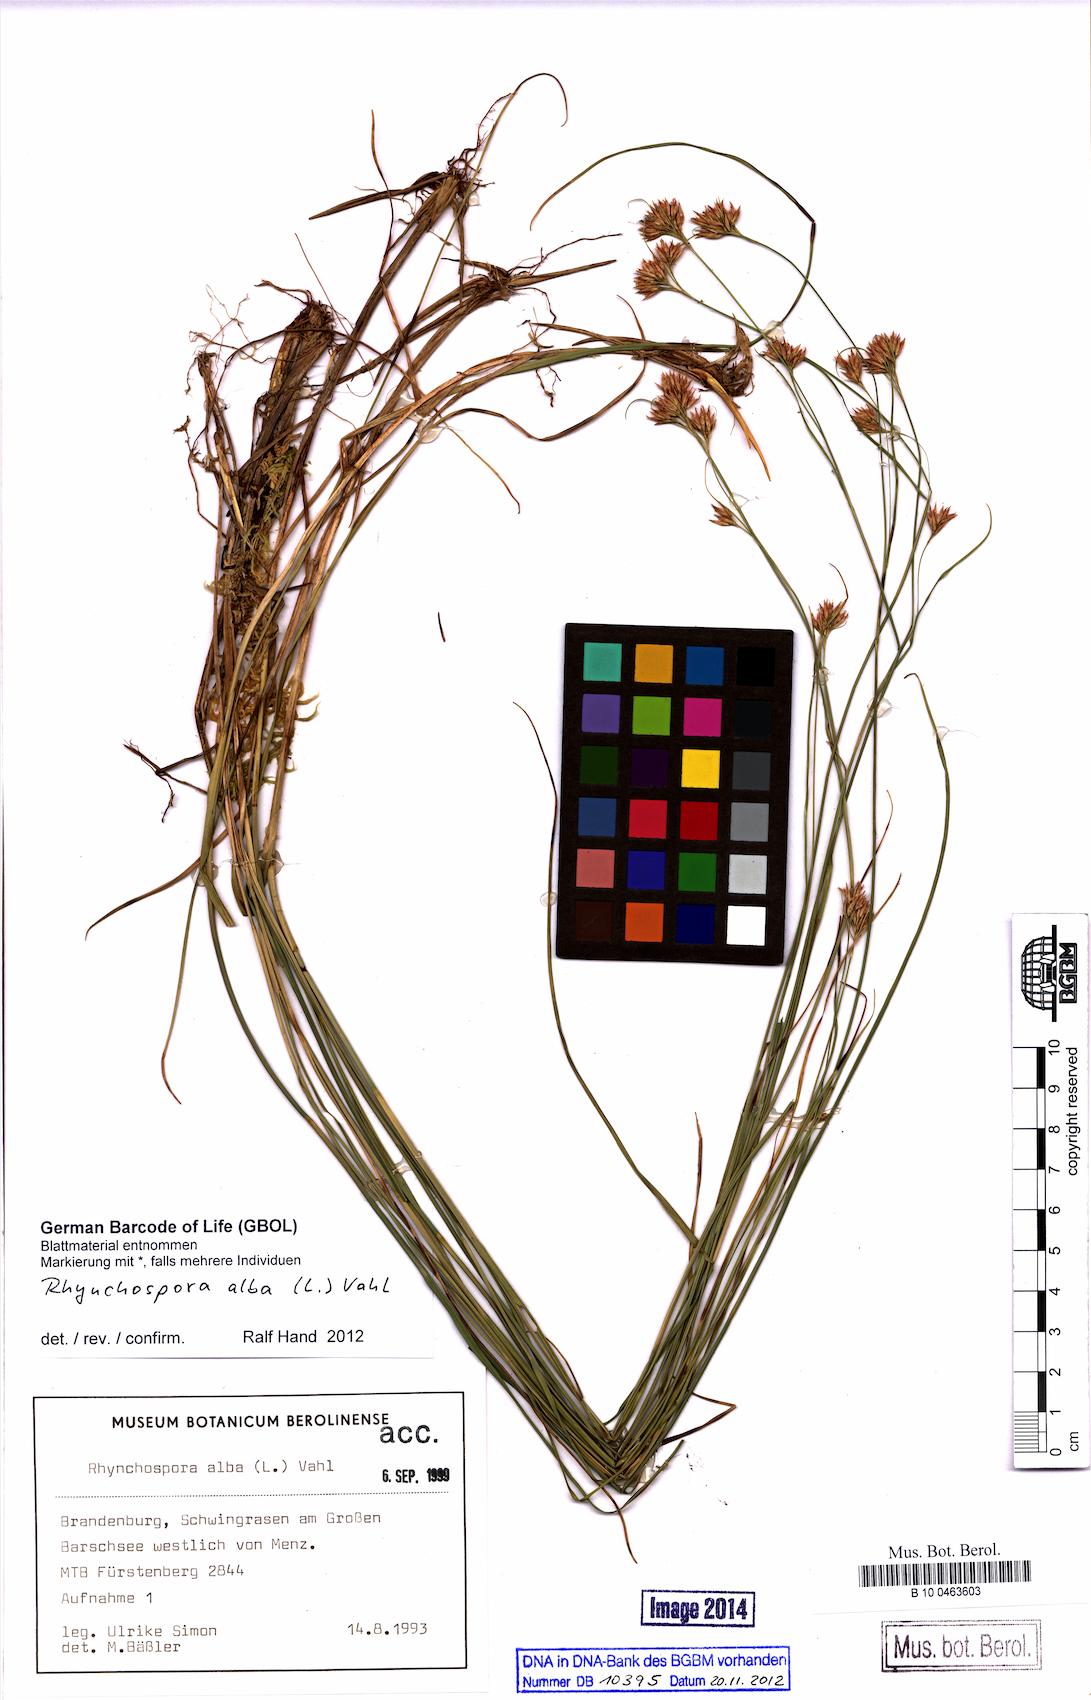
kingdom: Plantae
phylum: Tracheophyta
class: Liliopsida
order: Poales
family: Cyperaceae
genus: Rhynchospora
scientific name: Rhynchospora alba
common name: White beak-sedge
